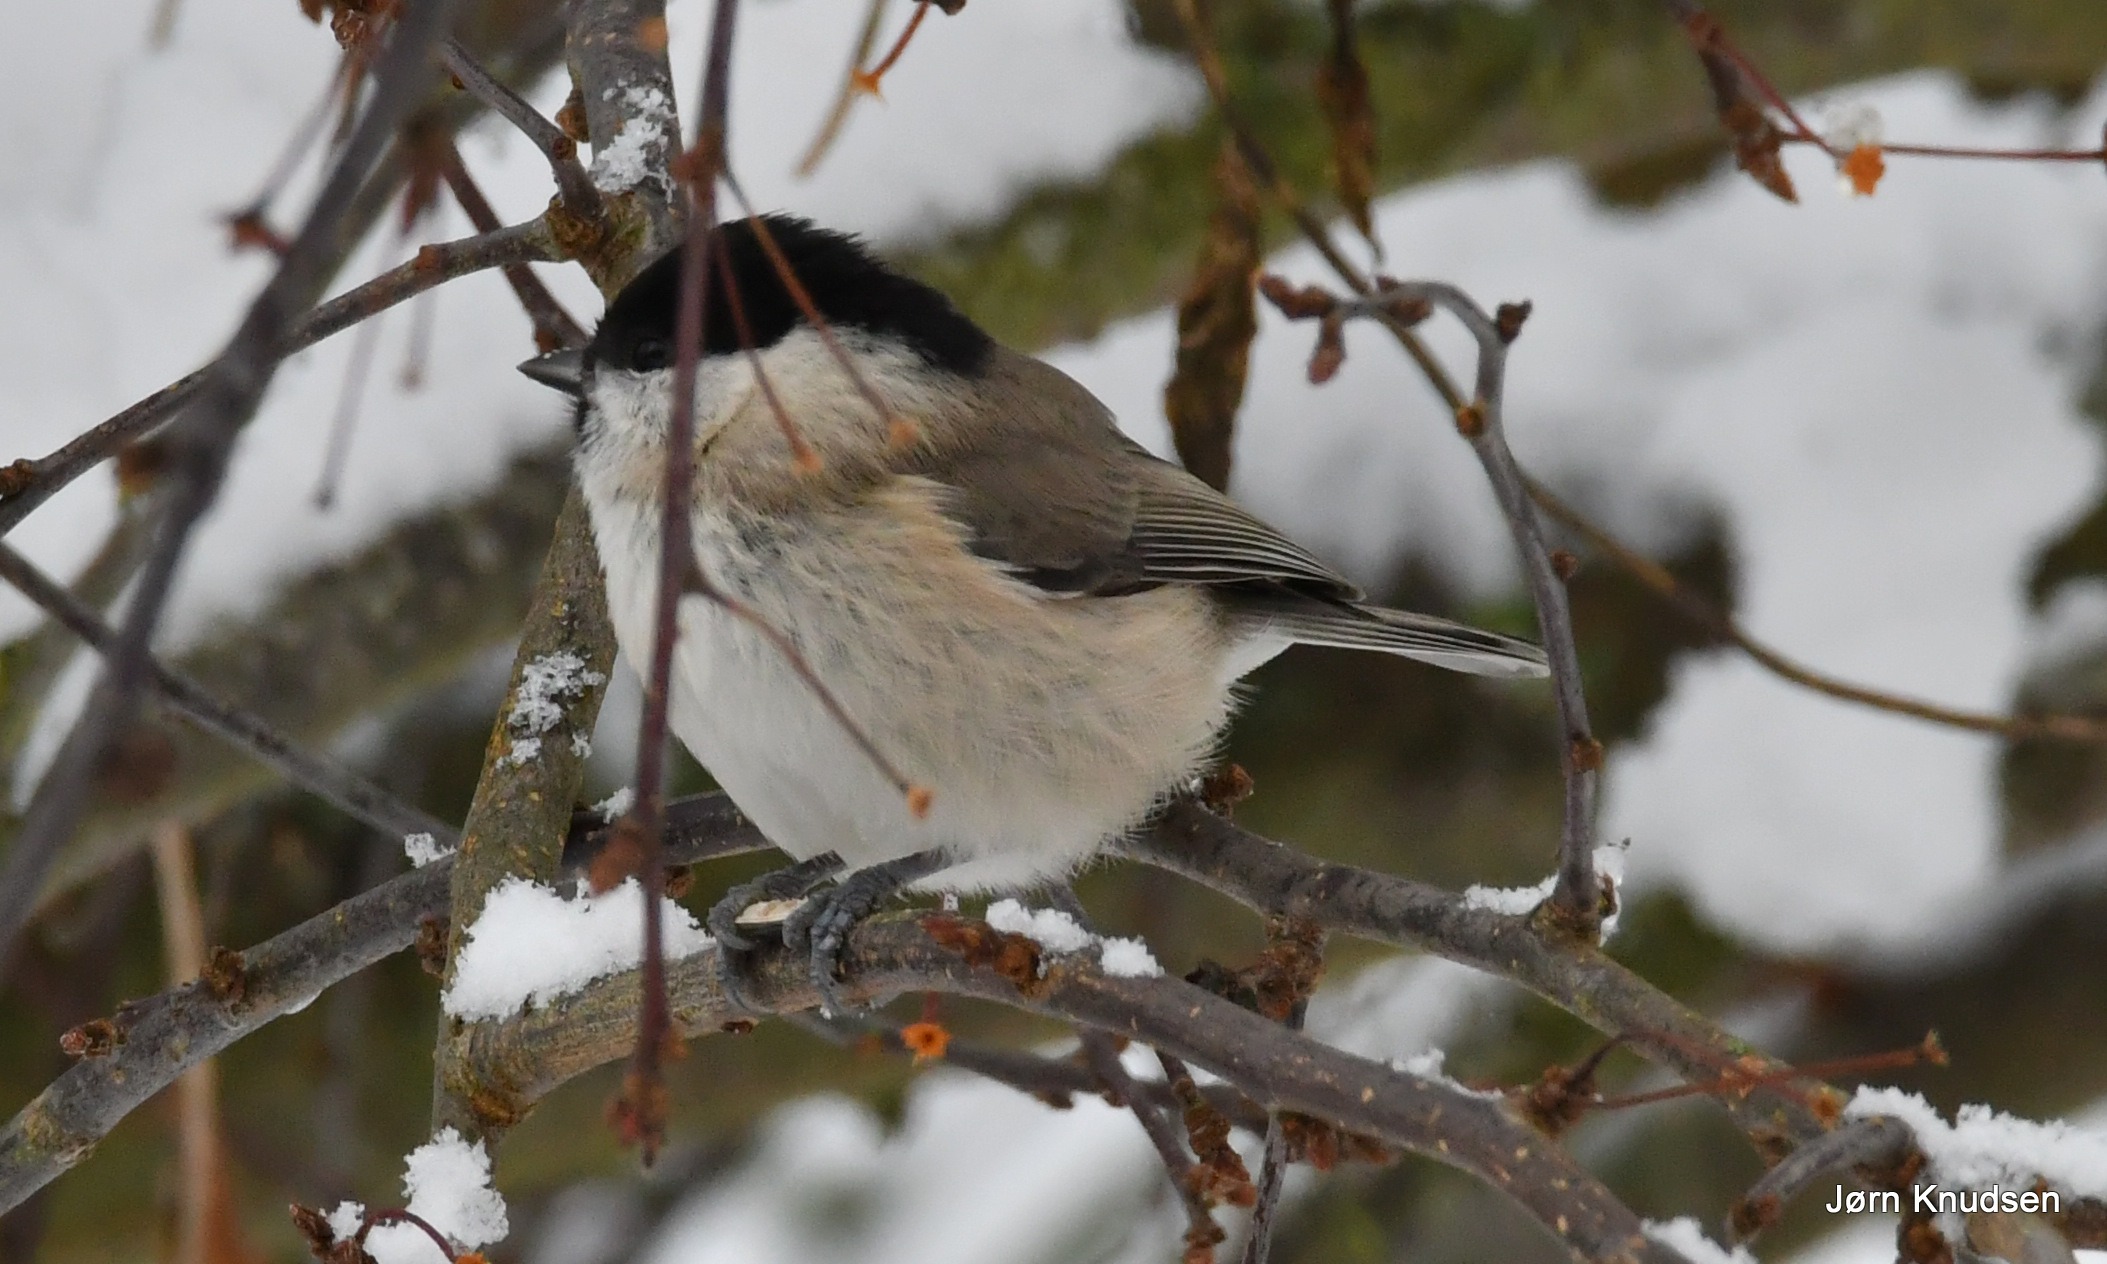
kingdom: Animalia
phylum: Chordata
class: Aves
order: Passeriformes
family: Paridae
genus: Poecile
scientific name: Poecile palustris
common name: Sumpmejse
